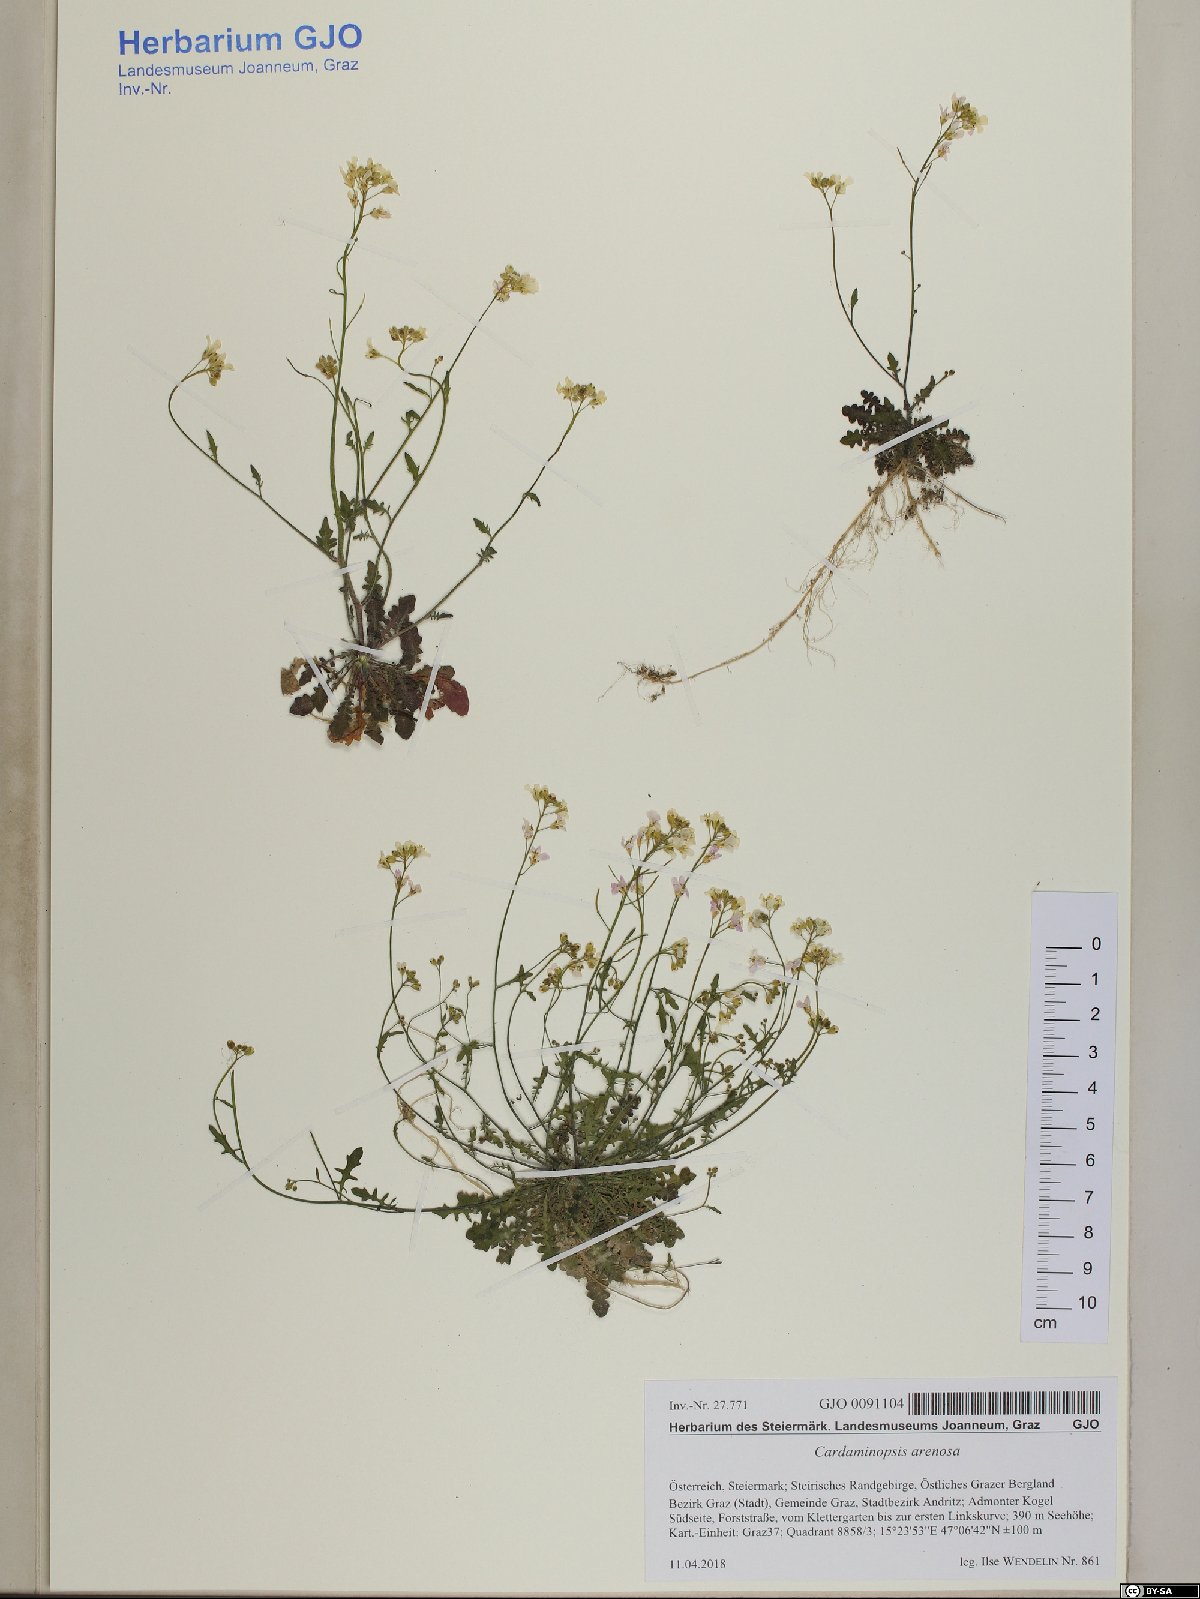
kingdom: Plantae
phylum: Tracheophyta
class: Magnoliopsida
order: Brassicales
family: Brassicaceae
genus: Arabidopsis
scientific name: Arabidopsis arenosa
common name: Sand rock-cress
